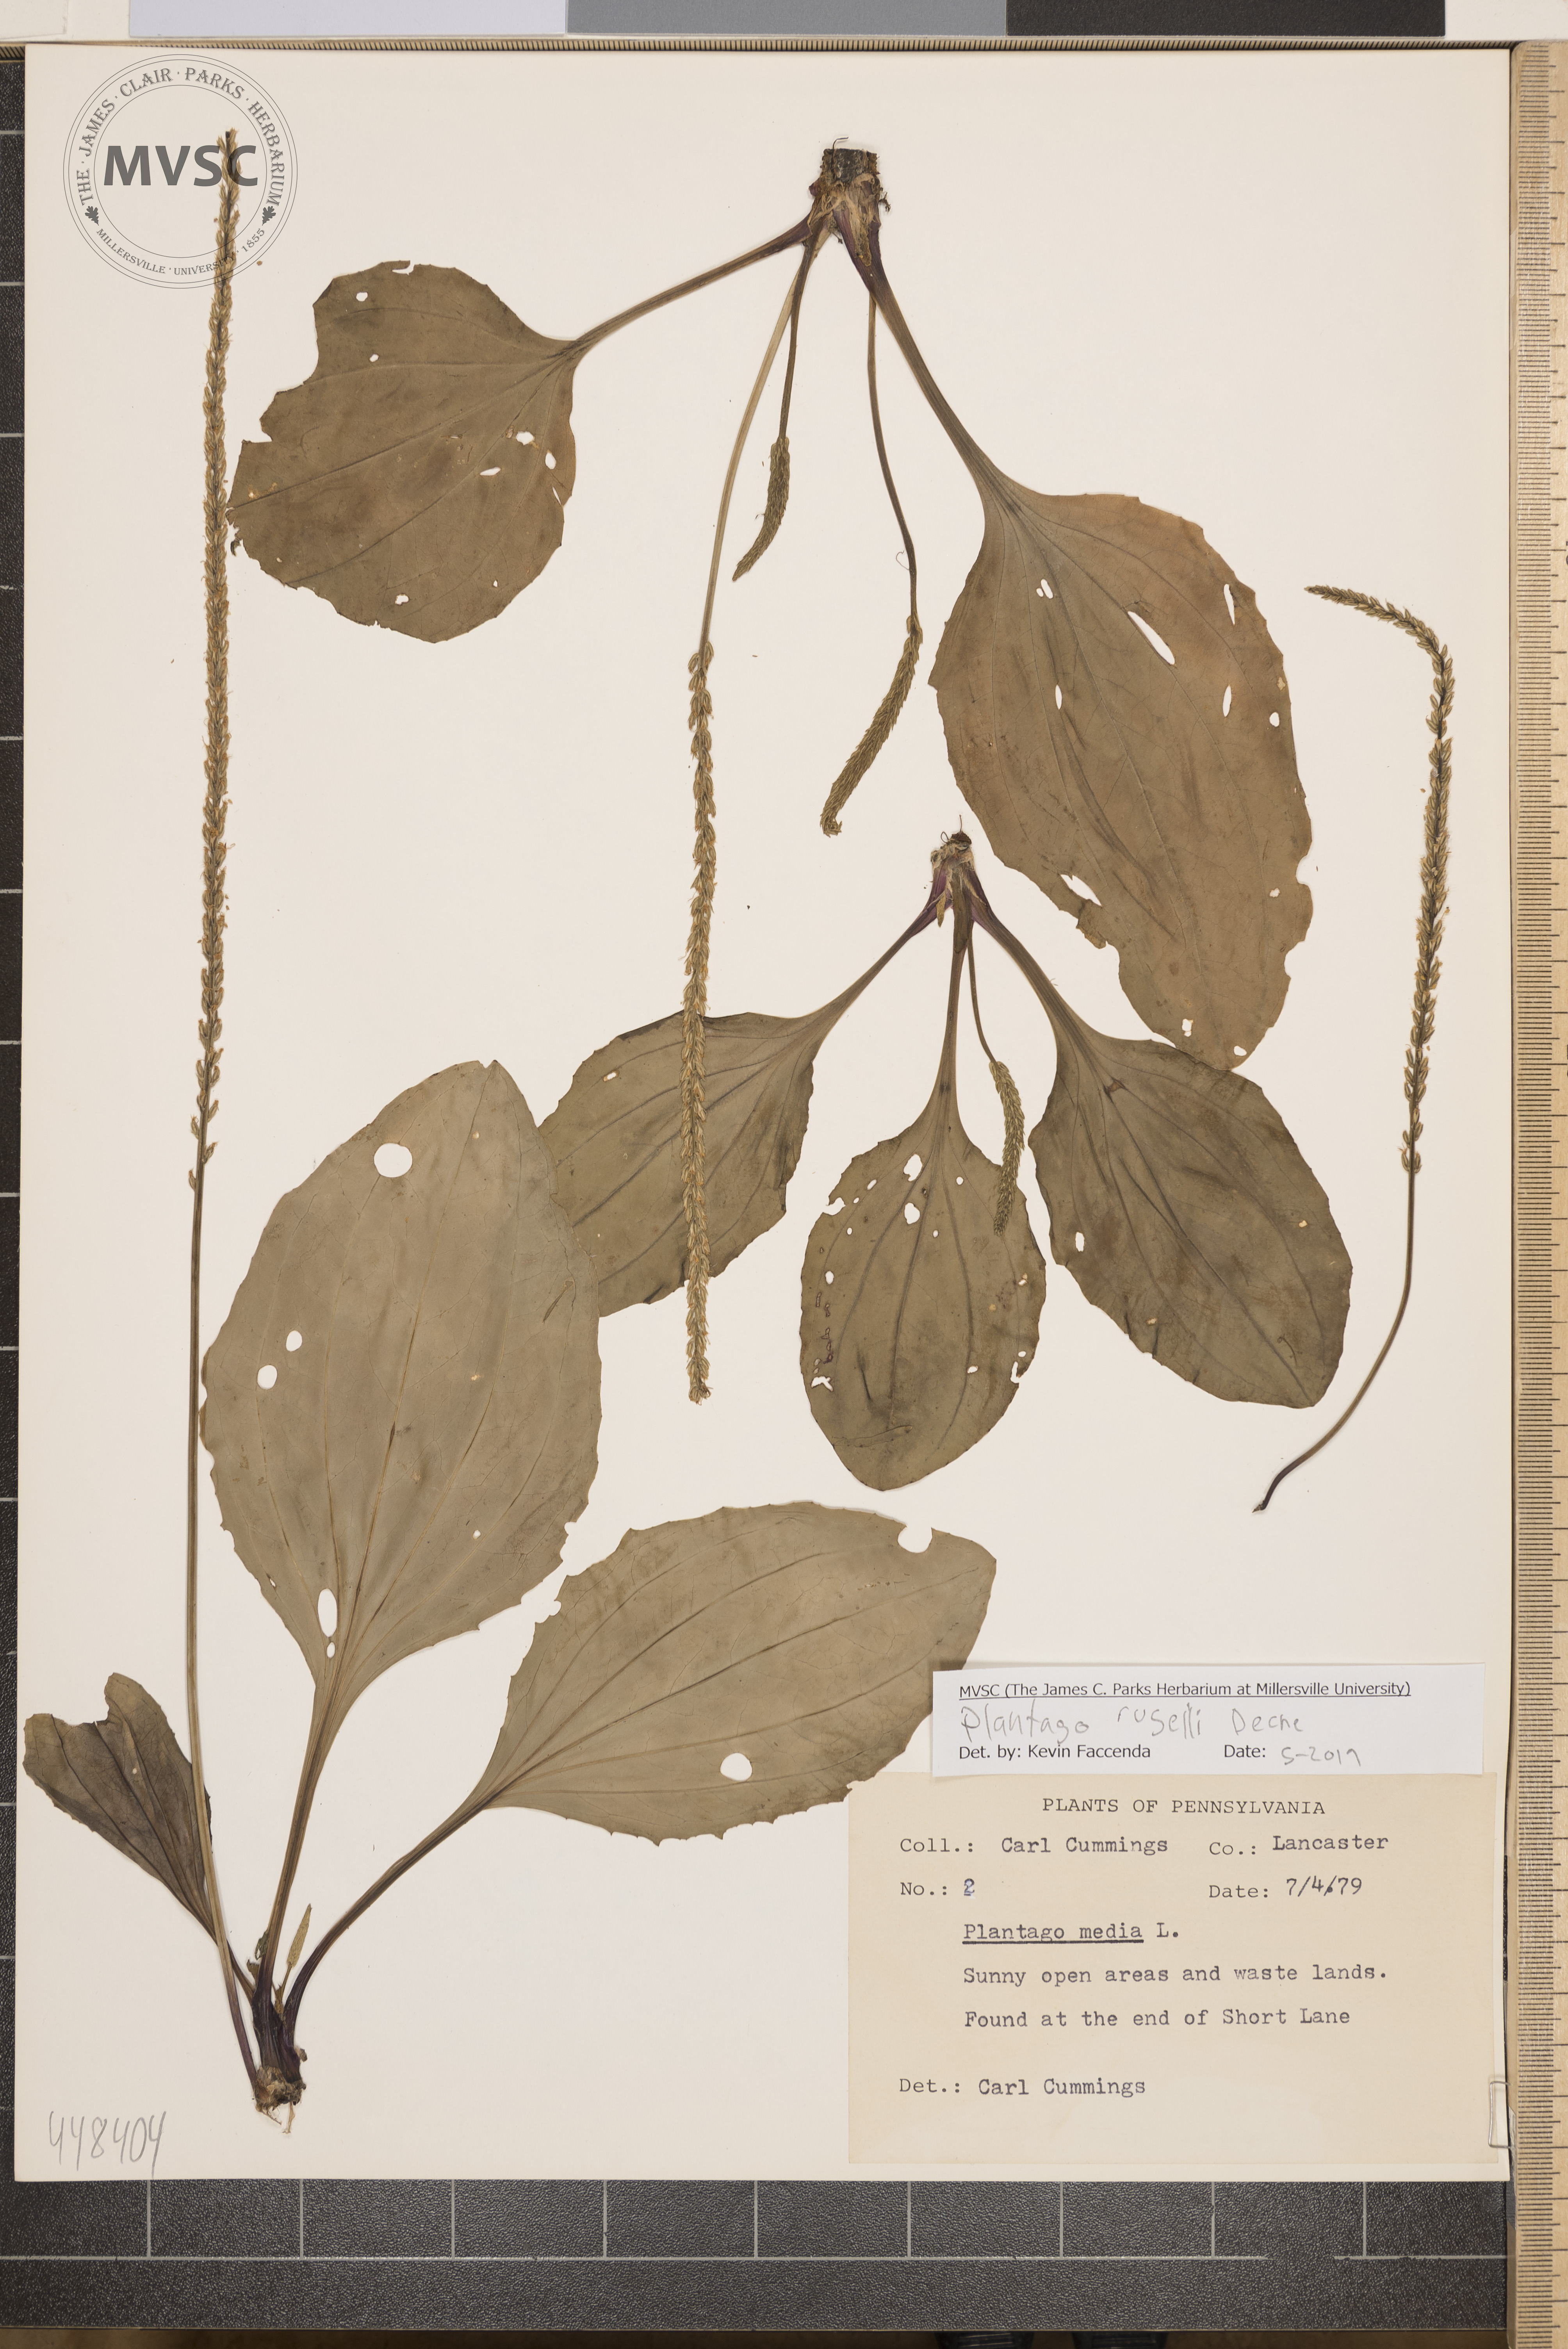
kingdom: Plantae
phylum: Tracheophyta
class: Magnoliopsida
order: Lamiales
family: Plantaginaceae
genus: Plantago
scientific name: Plantago rugelii
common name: American plantain
